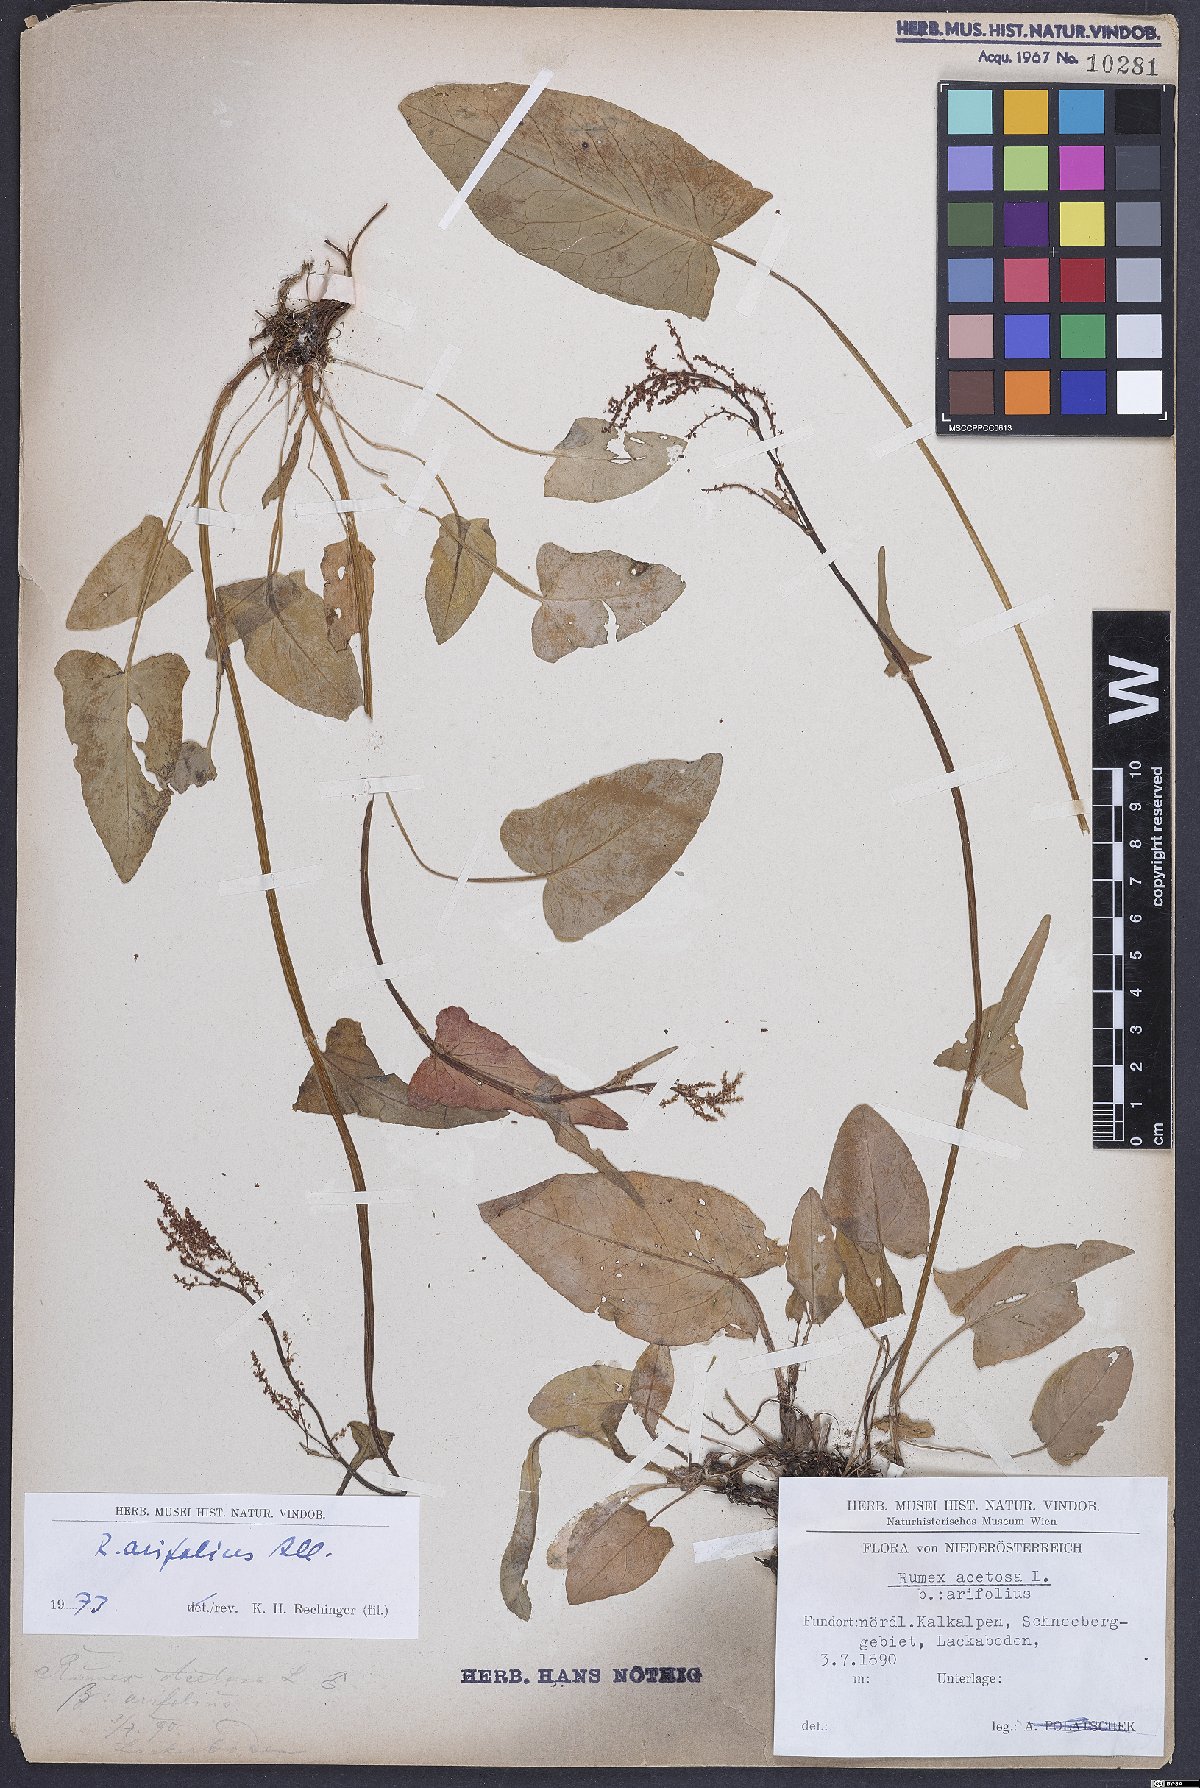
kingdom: Plantae
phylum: Tracheophyta
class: Magnoliopsida
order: Caryophyllales
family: Polygonaceae
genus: Rumex
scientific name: Rumex arifolius
